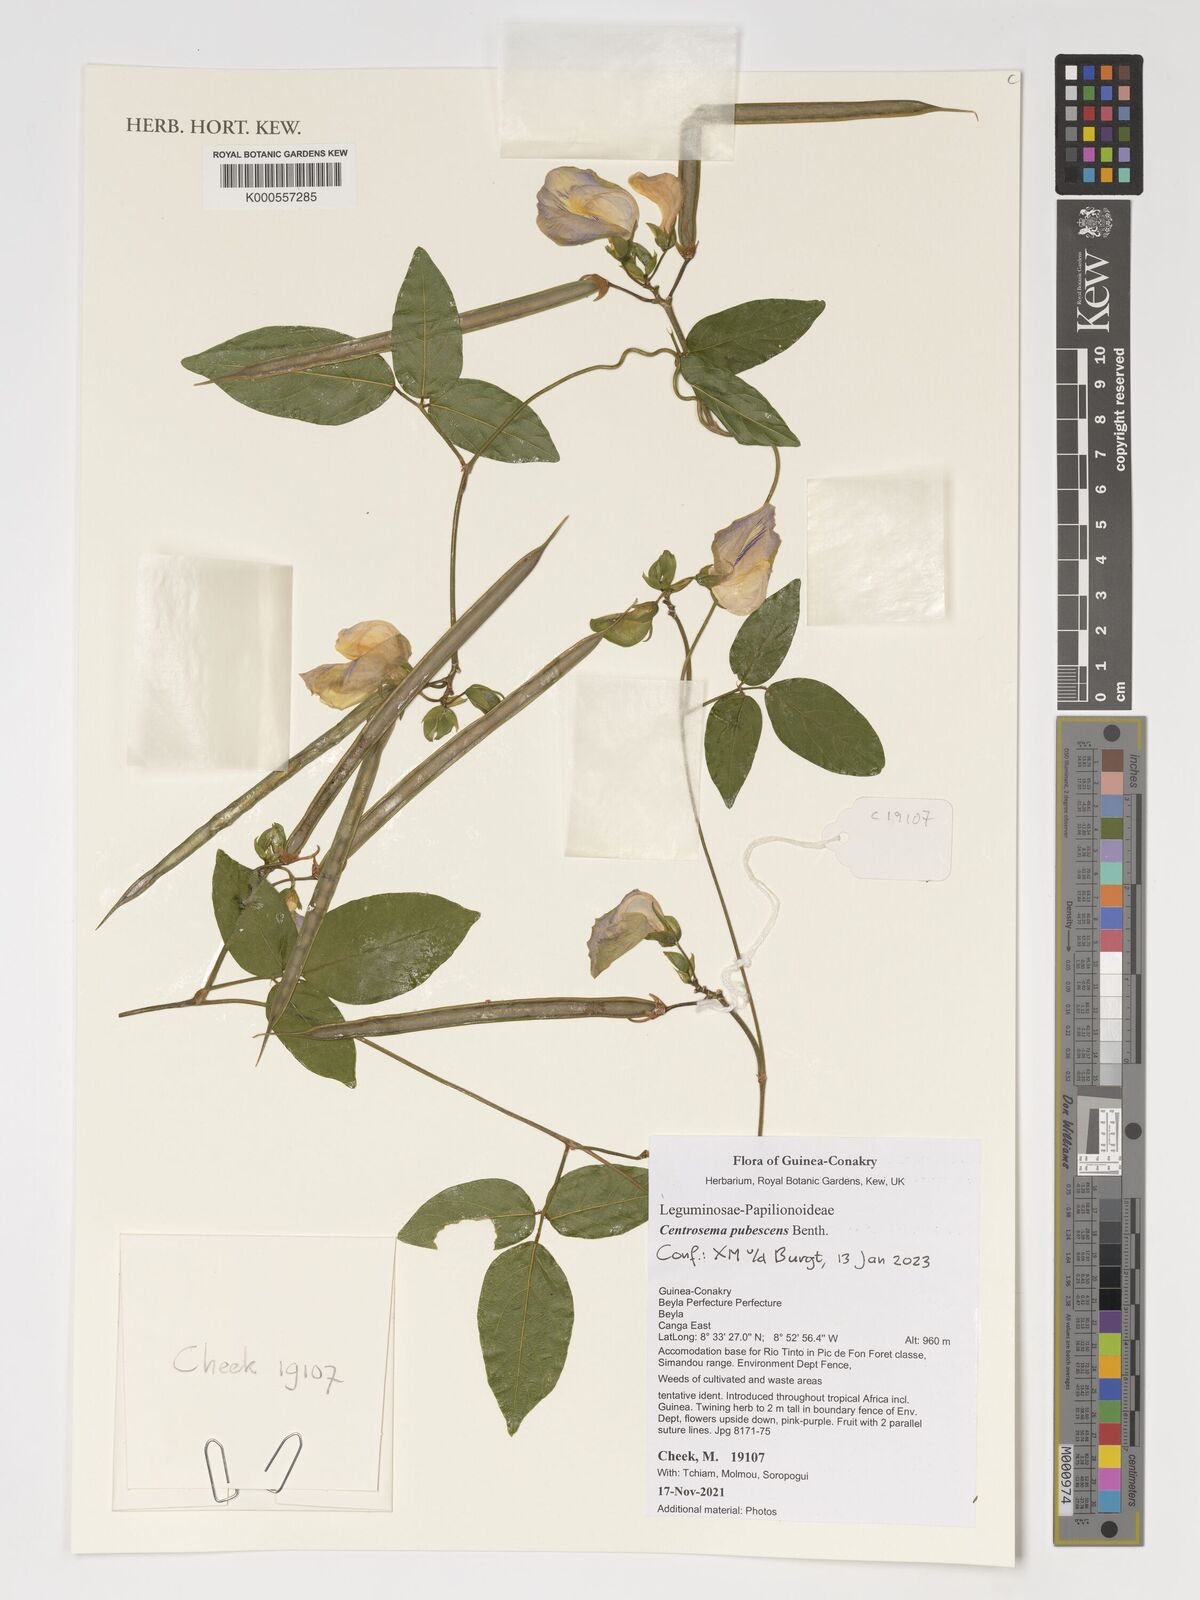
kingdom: Plantae
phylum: Tracheophyta
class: Magnoliopsida
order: Fabales
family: Fabaceae
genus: Centrosema
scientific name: Centrosema pubescens
